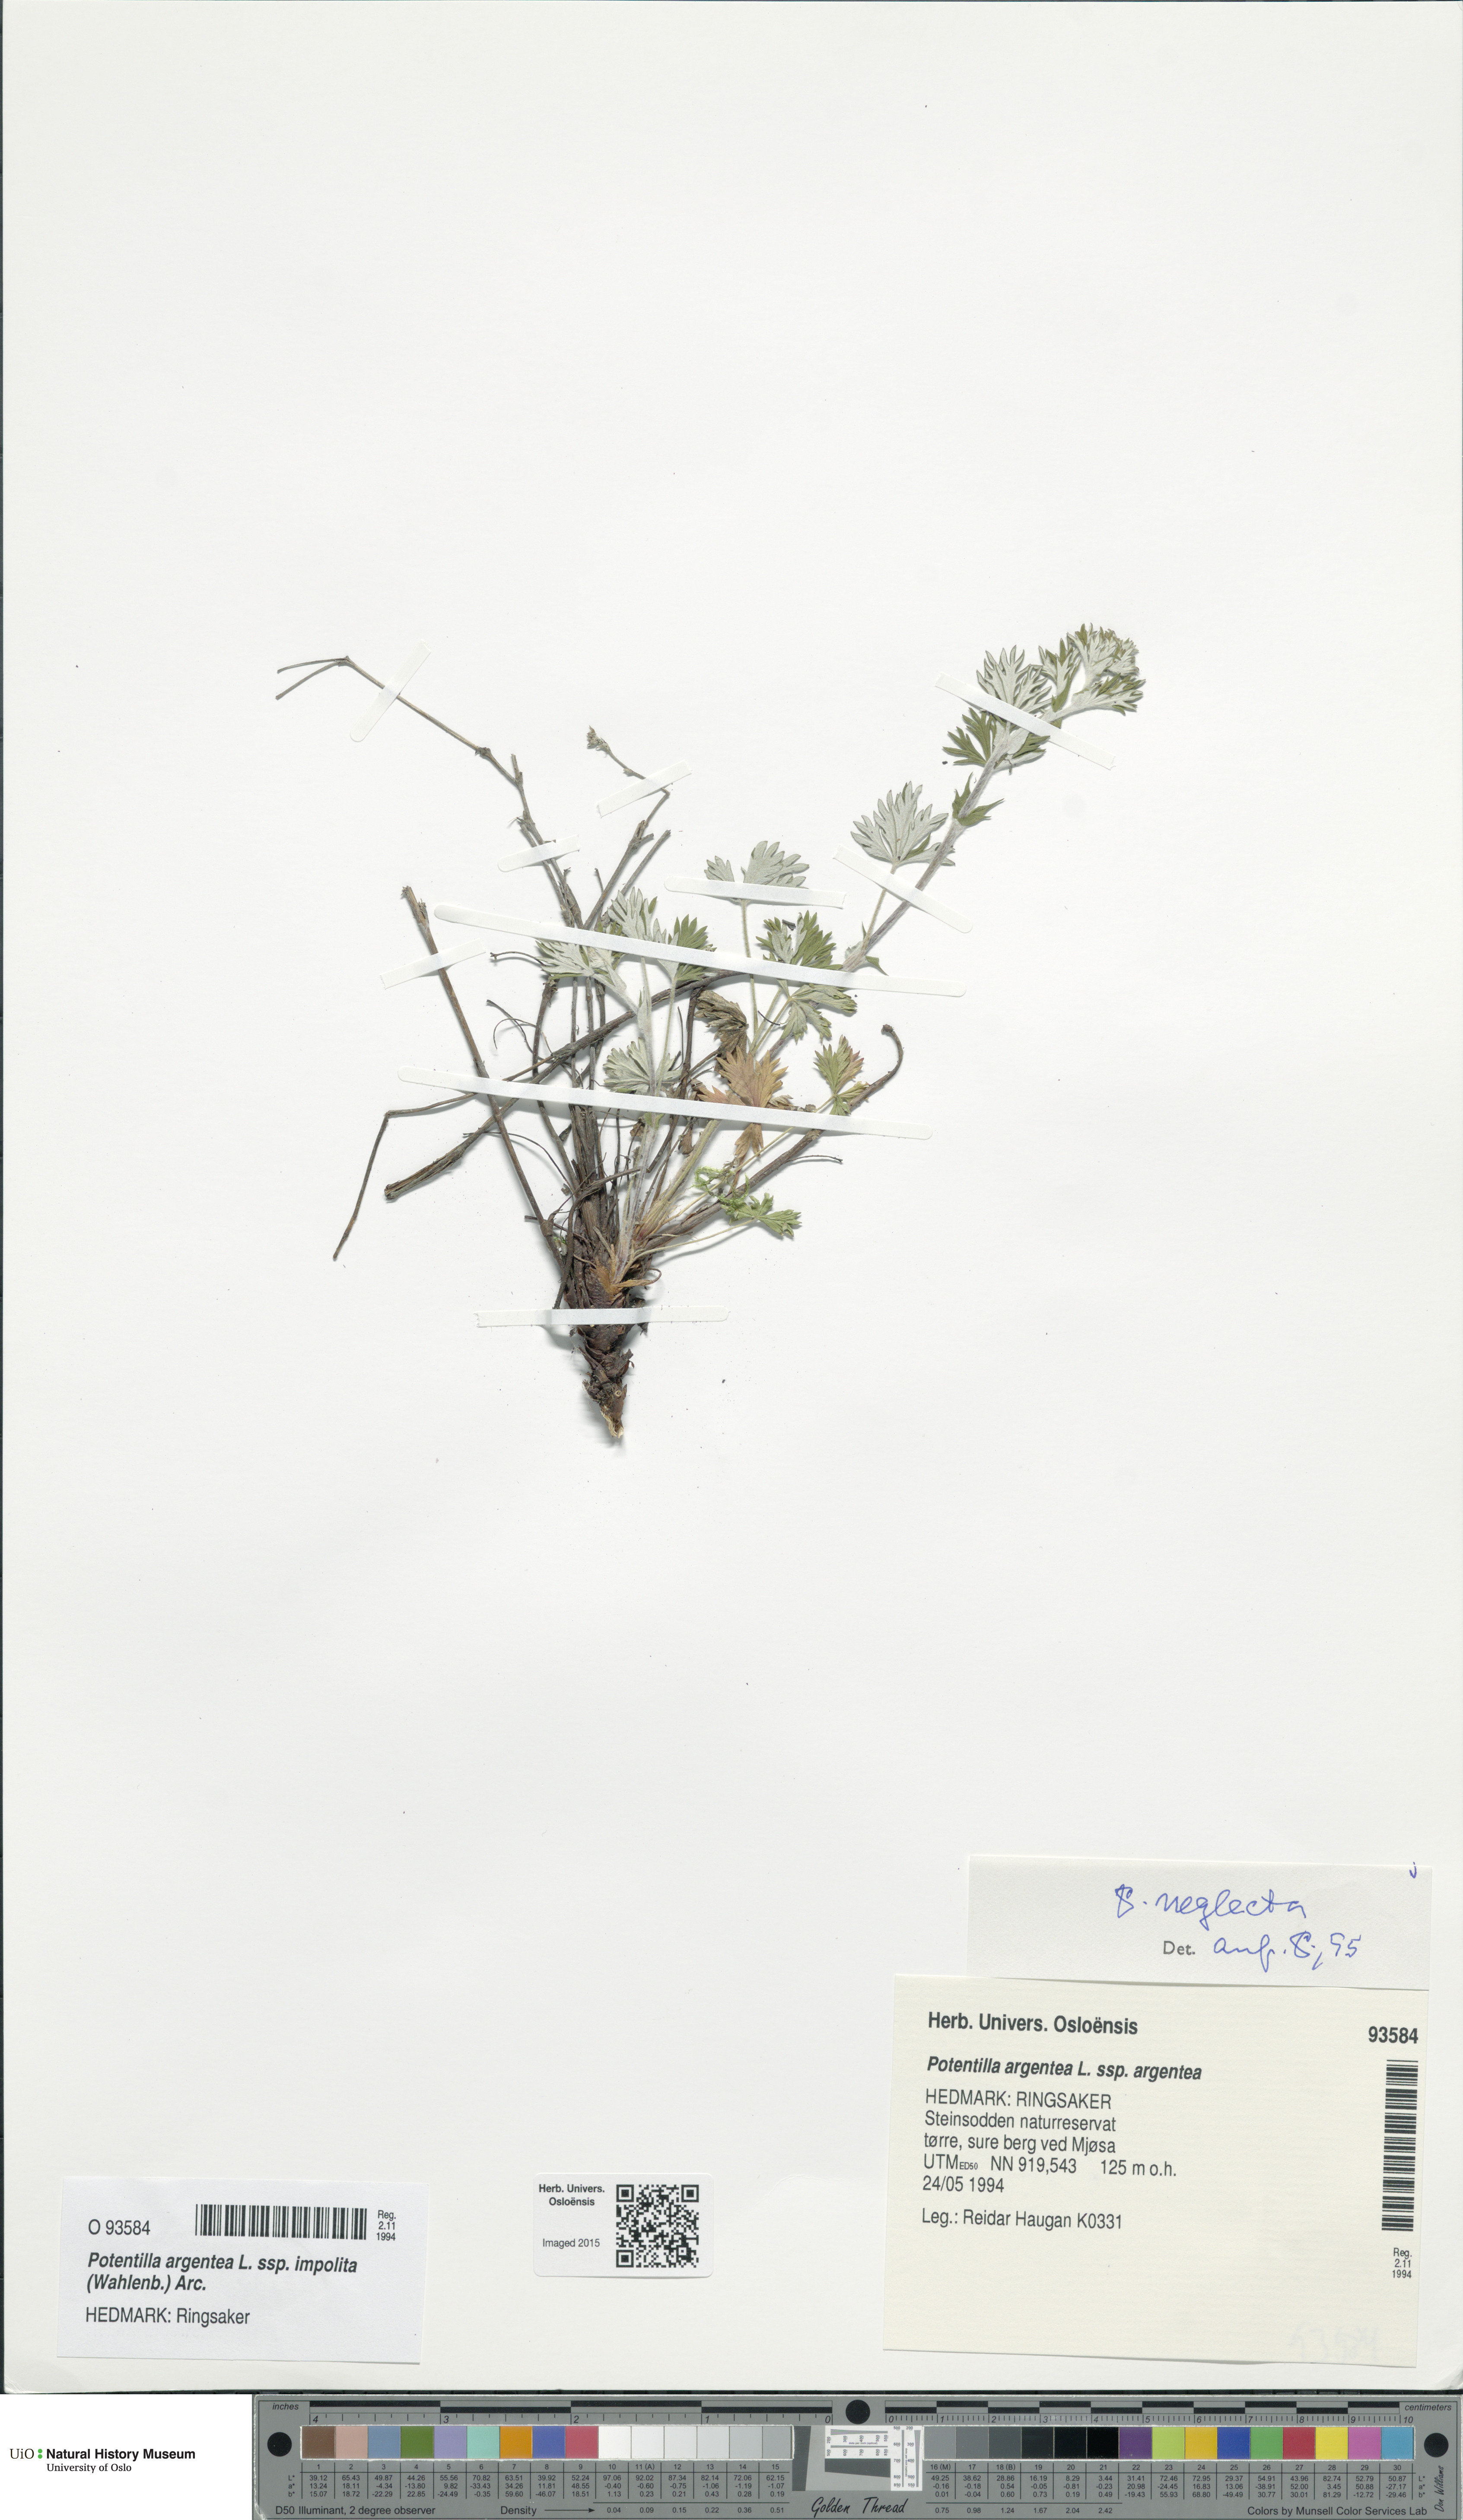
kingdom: Plantae
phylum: Tracheophyta
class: Magnoliopsida
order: Rosales
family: Rosaceae
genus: Potentilla
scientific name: Potentilla neglecta
